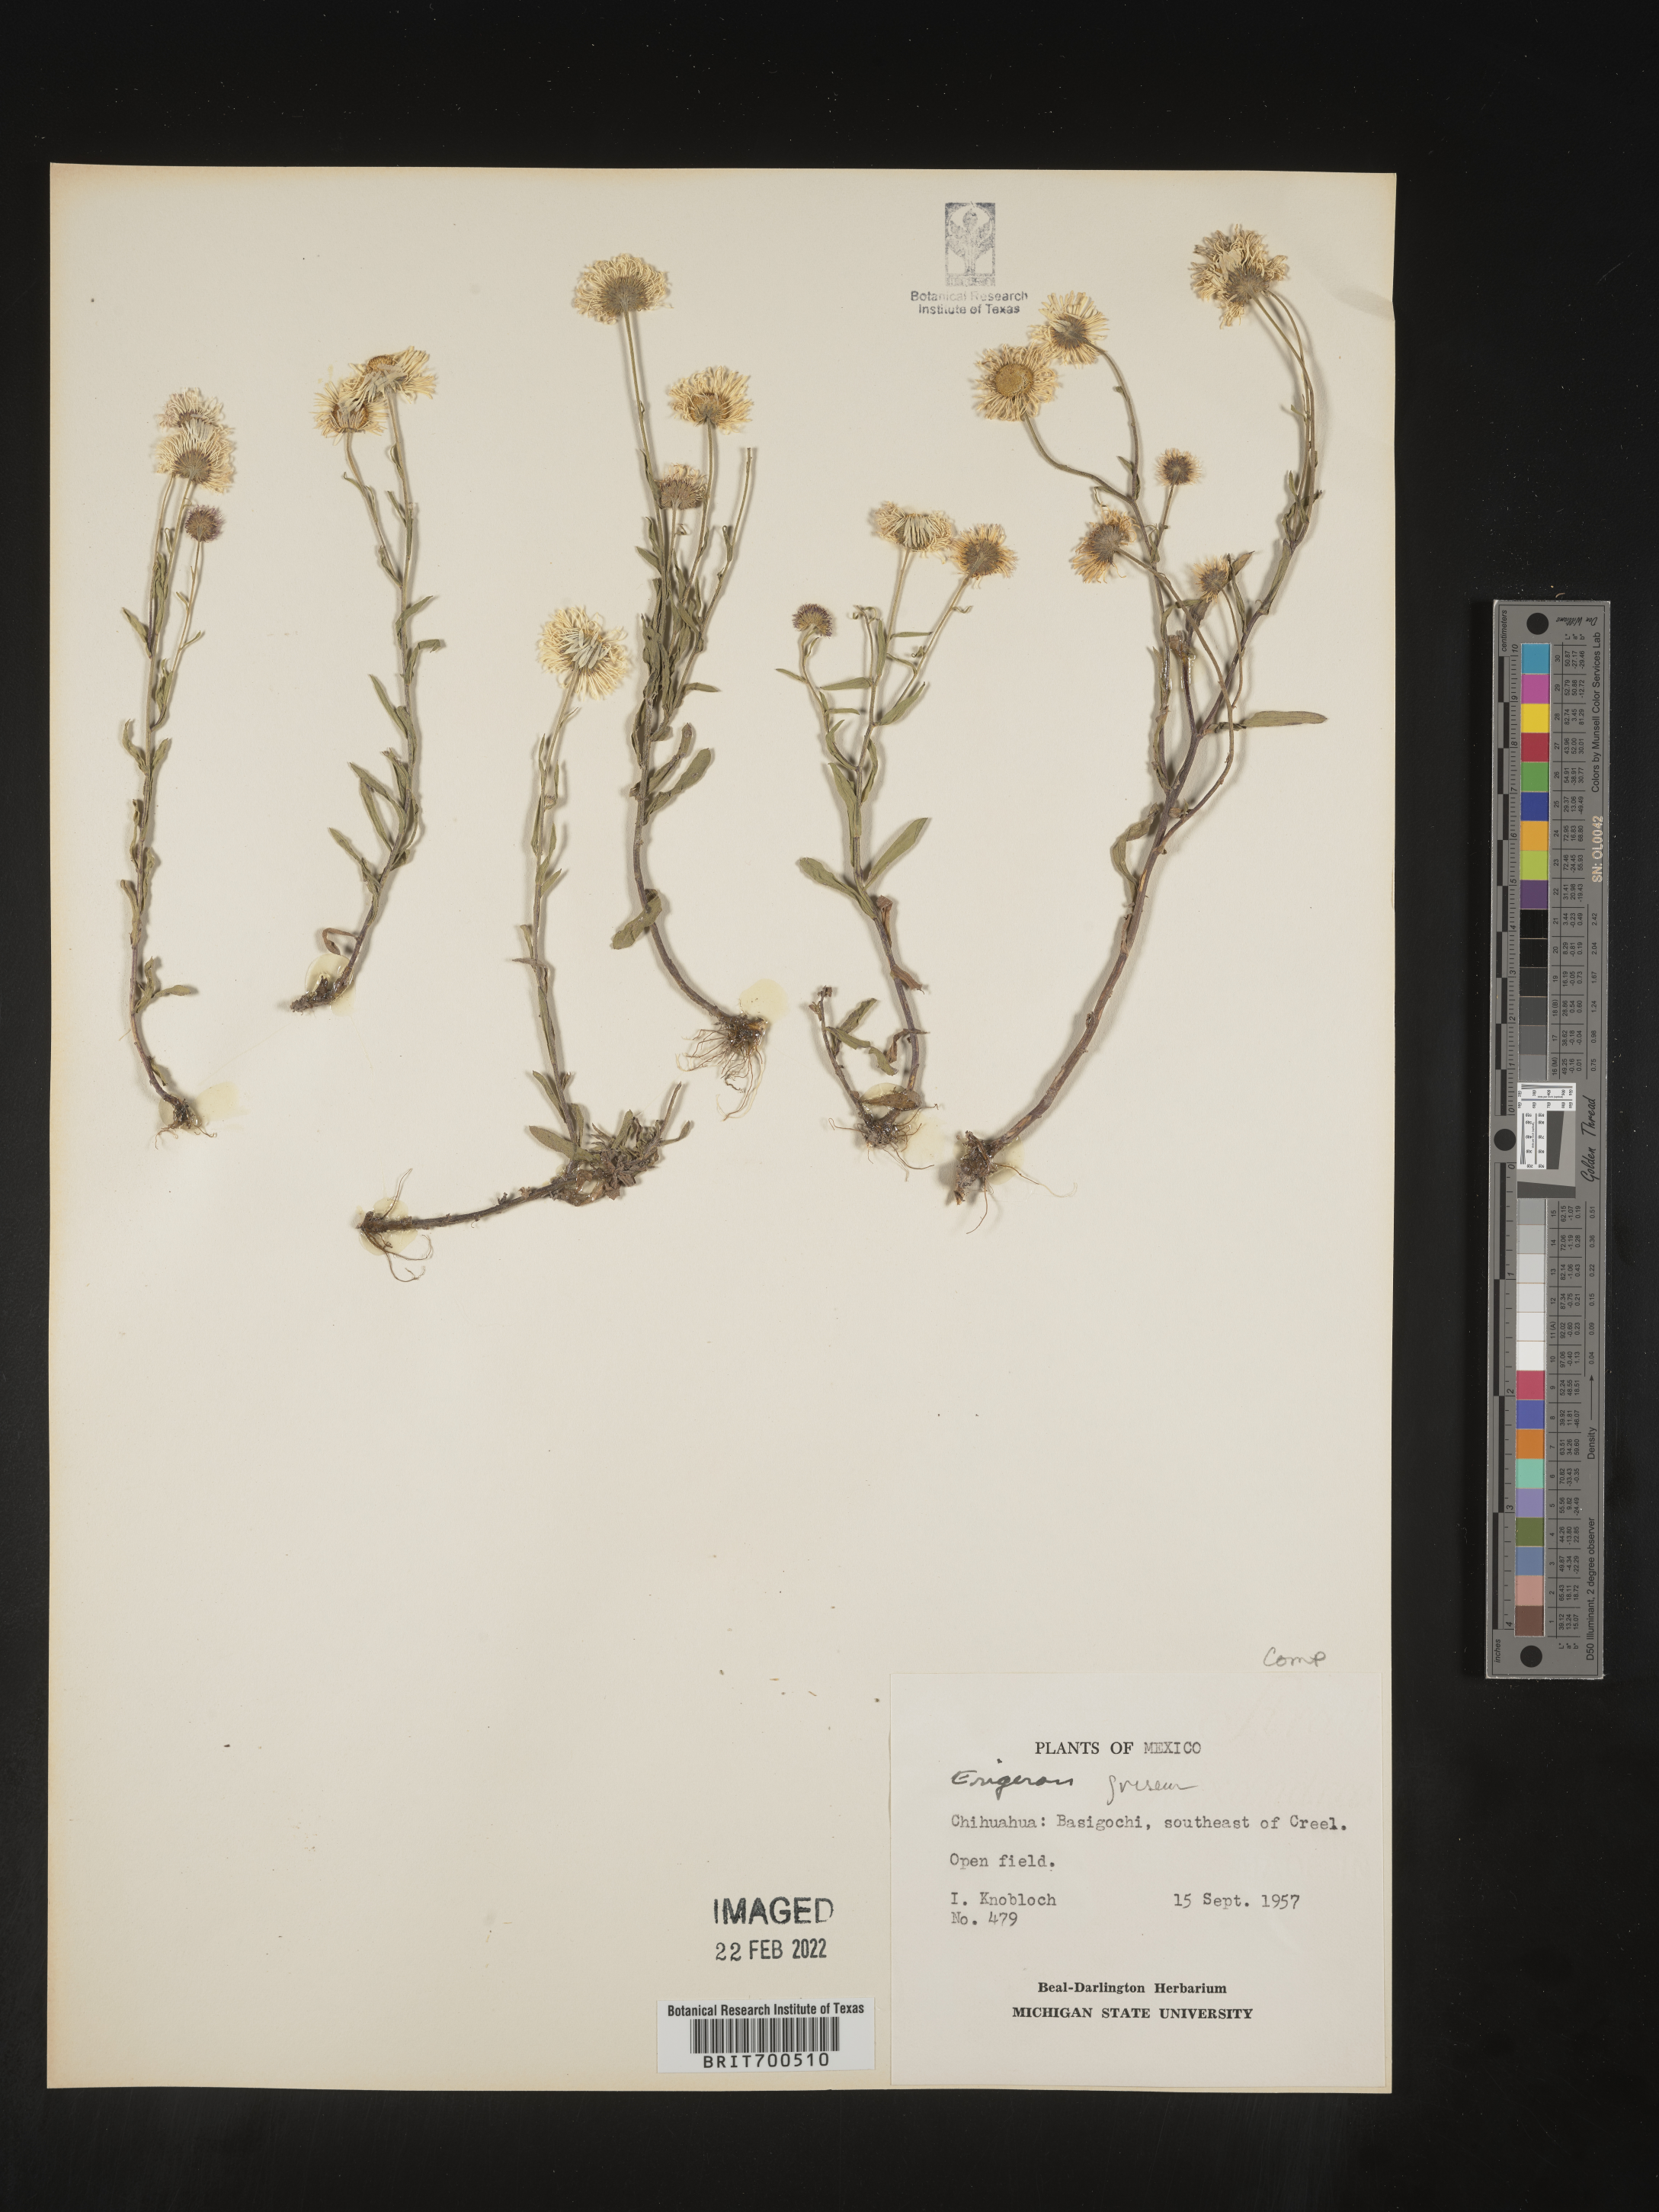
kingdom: Plantae
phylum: Tracheophyta
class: Magnoliopsida
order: Asterales
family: Asteraceae
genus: Erigeron
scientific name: Erigeron
